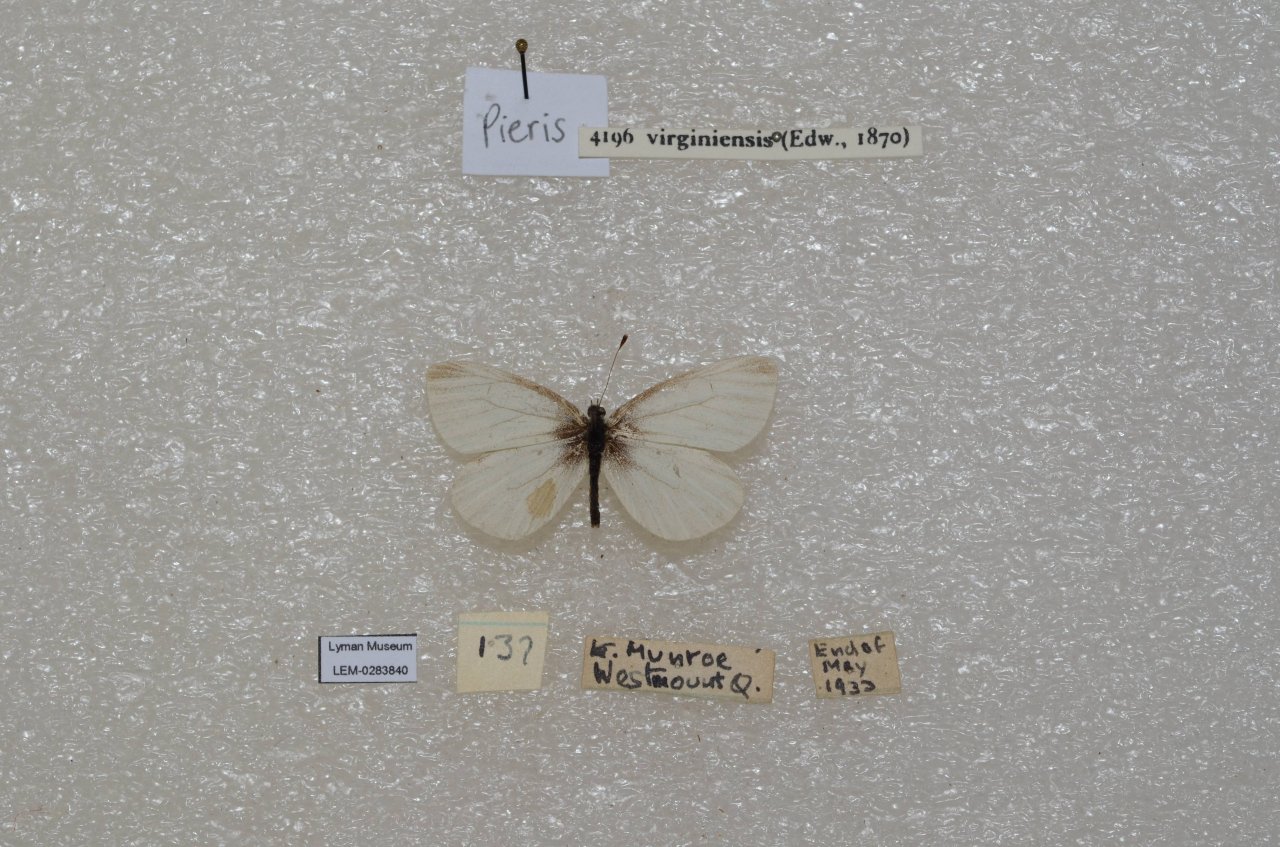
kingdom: Animalia
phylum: Arthropoda
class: Insecta
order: Lepidoptera
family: Pieridae
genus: Pieris
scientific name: Pieris virginiensis
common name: West Virginia White
